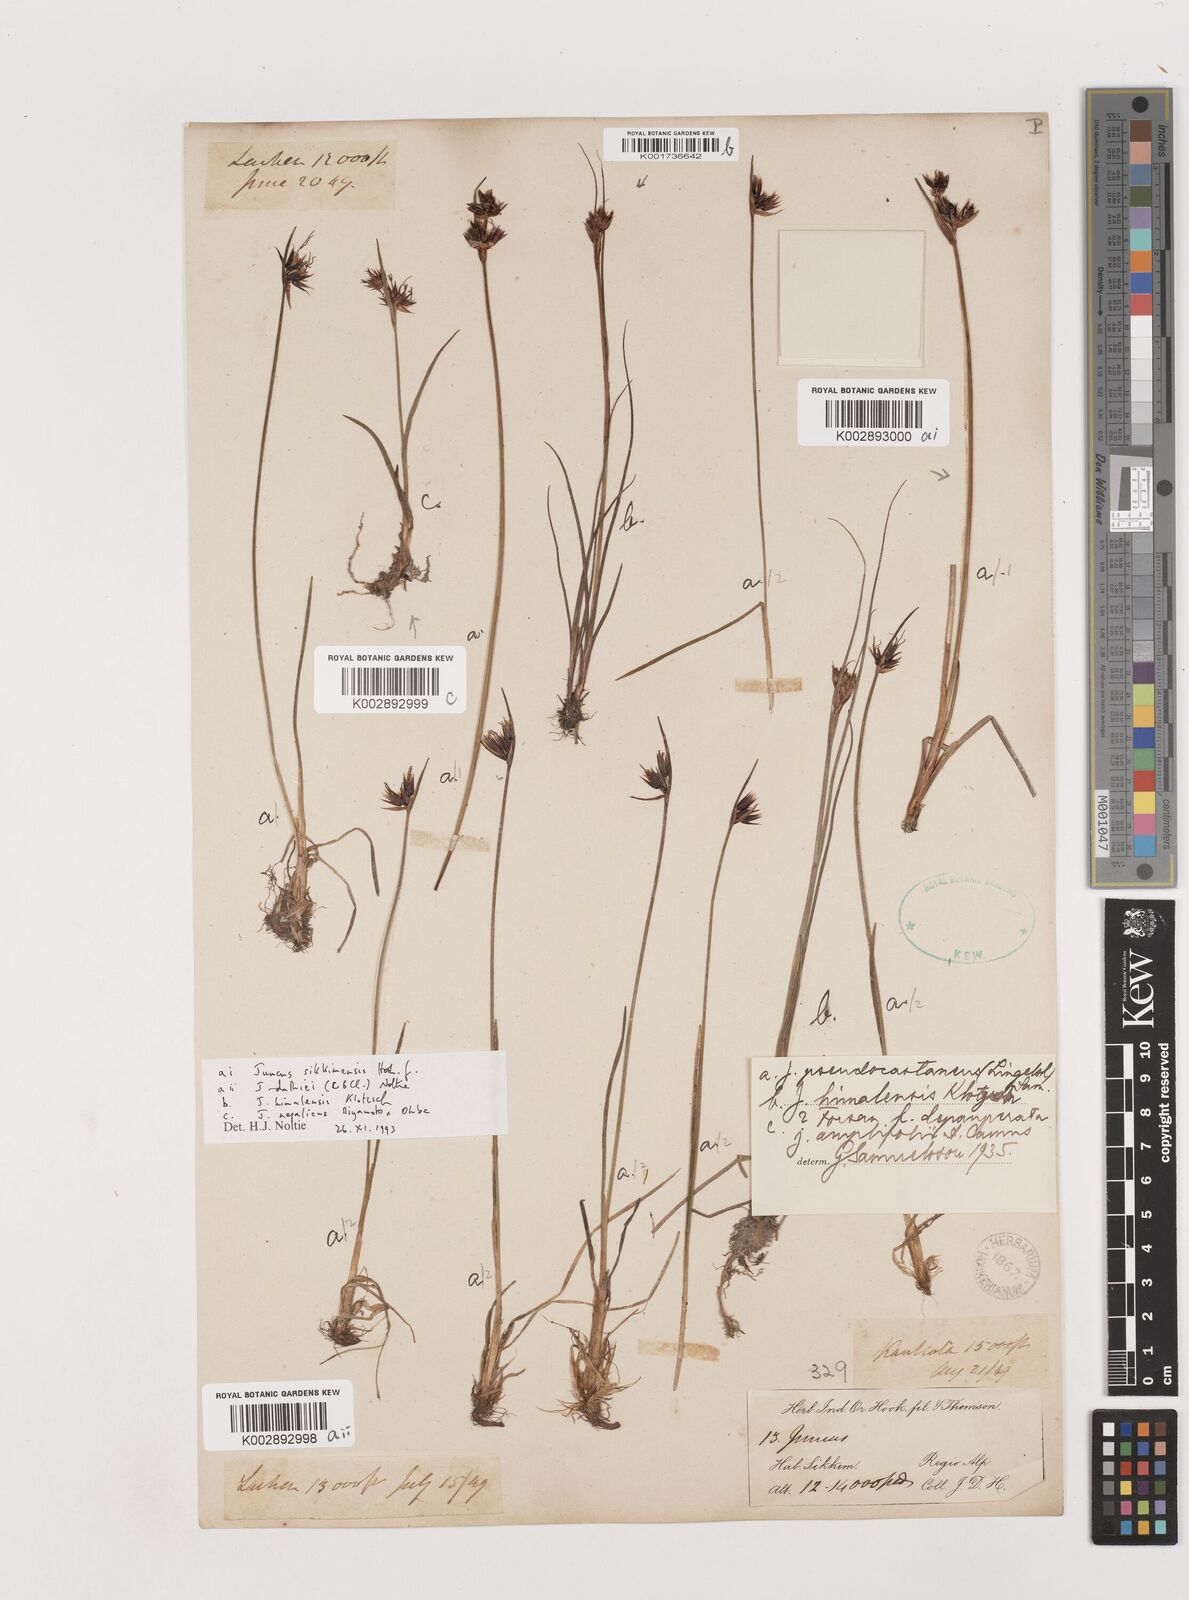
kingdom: Plantae
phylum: Tracheophyta
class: Liliopsida
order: Poales
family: Juncaceae
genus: Juncus
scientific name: Juncus
